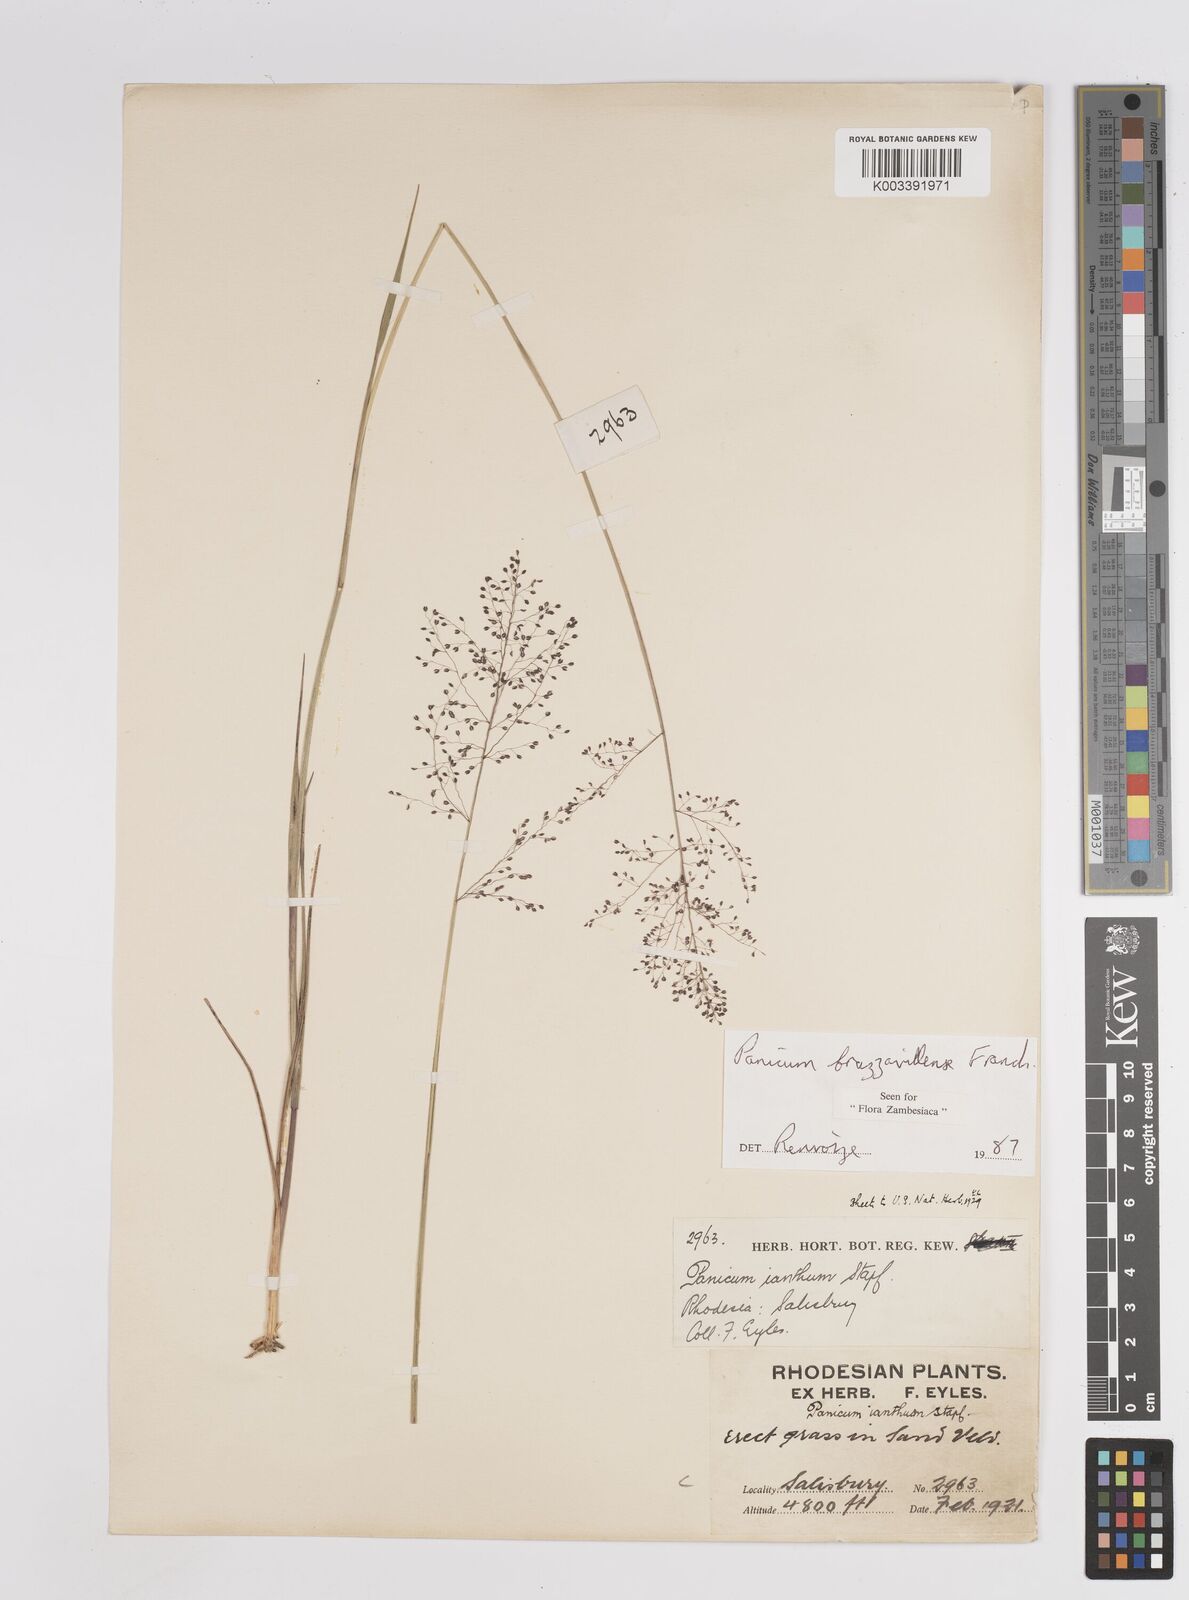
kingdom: Plantae
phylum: Tracheophyta
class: Liliopsida
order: Poales
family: Poaceae
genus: Trichanthecium
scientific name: Trichanthecium brazzavillense
